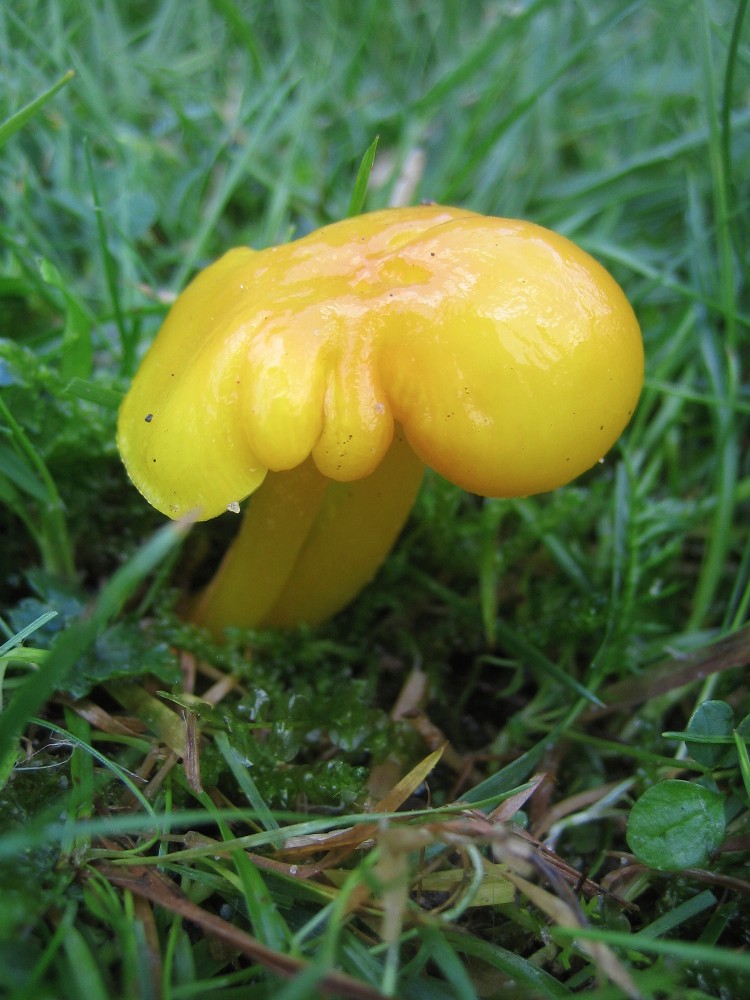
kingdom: Fungi
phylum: Basidiomycota
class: Agaricomycetes
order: Agaricales
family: Hygrophoraceae
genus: Hygrocybe
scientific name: Hygrocybe chlorophana
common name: gul vokshat
